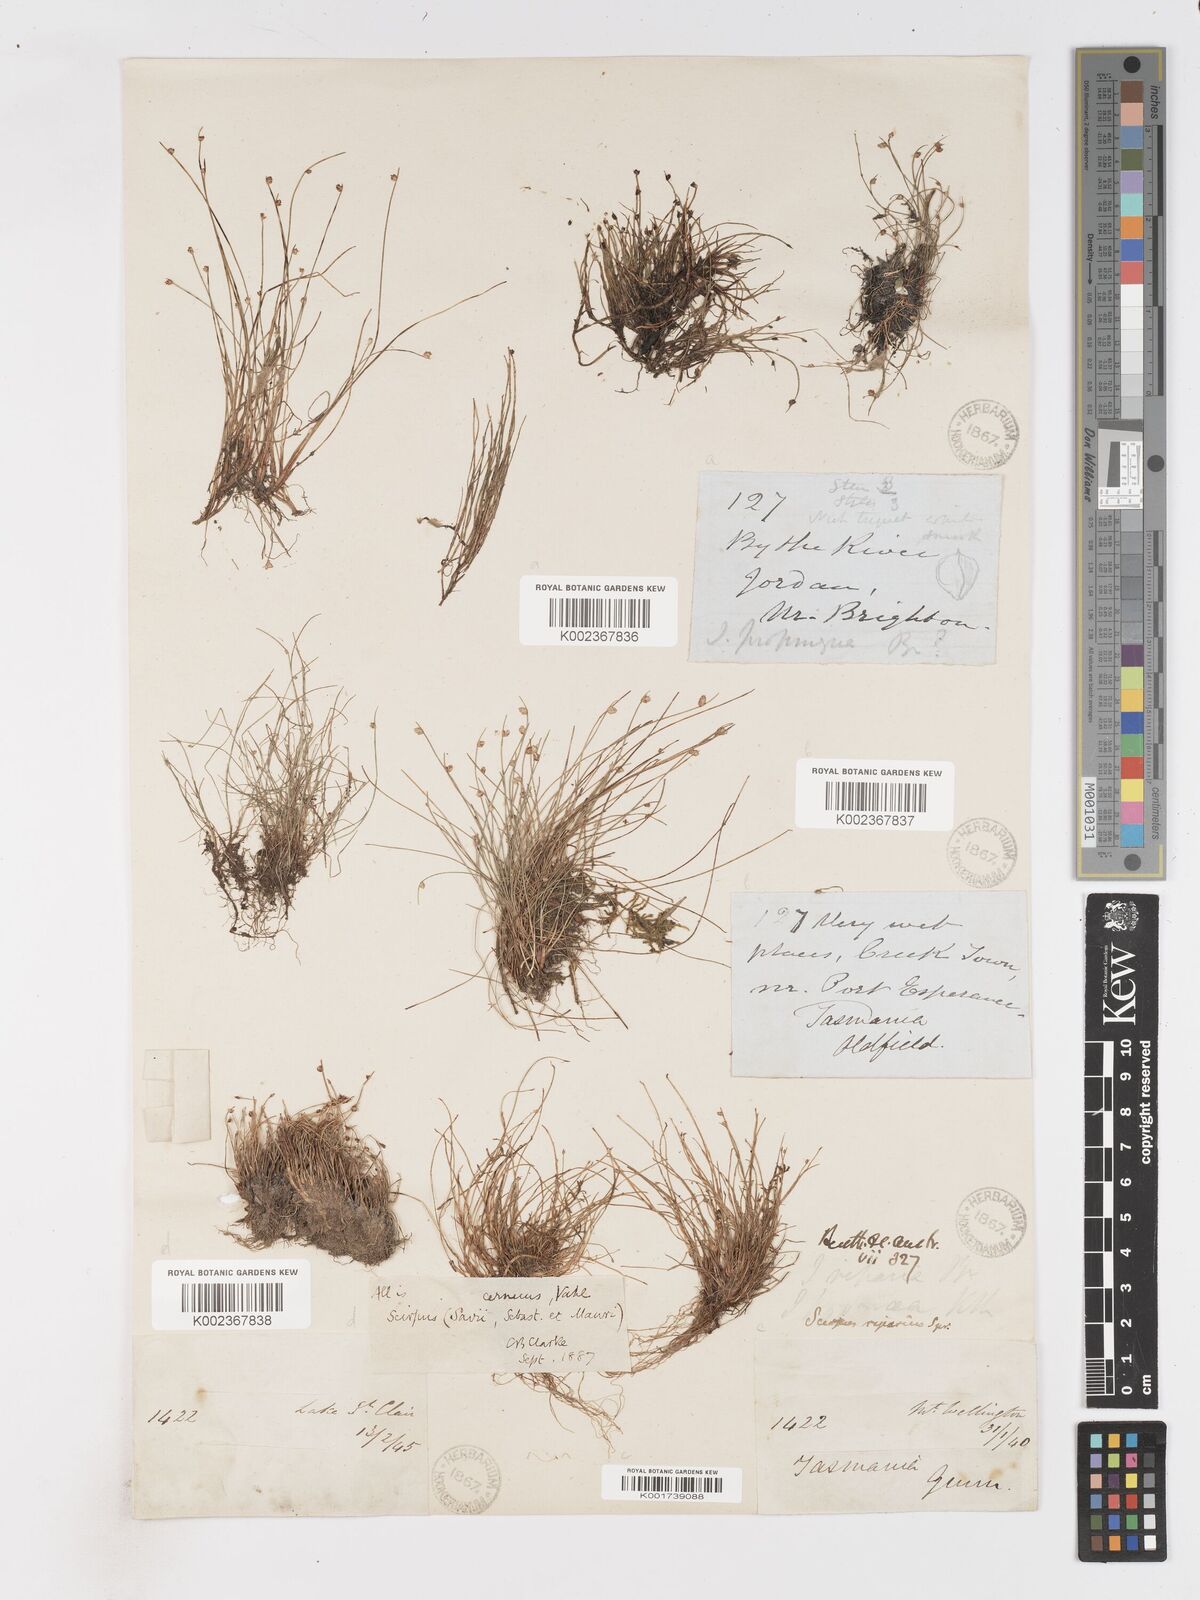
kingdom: Plantae
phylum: Tracheophyta
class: Liliopsida
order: Poales
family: Cyperaceae
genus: Isolepis
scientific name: Isolepis cernua
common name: Slender club-rush
